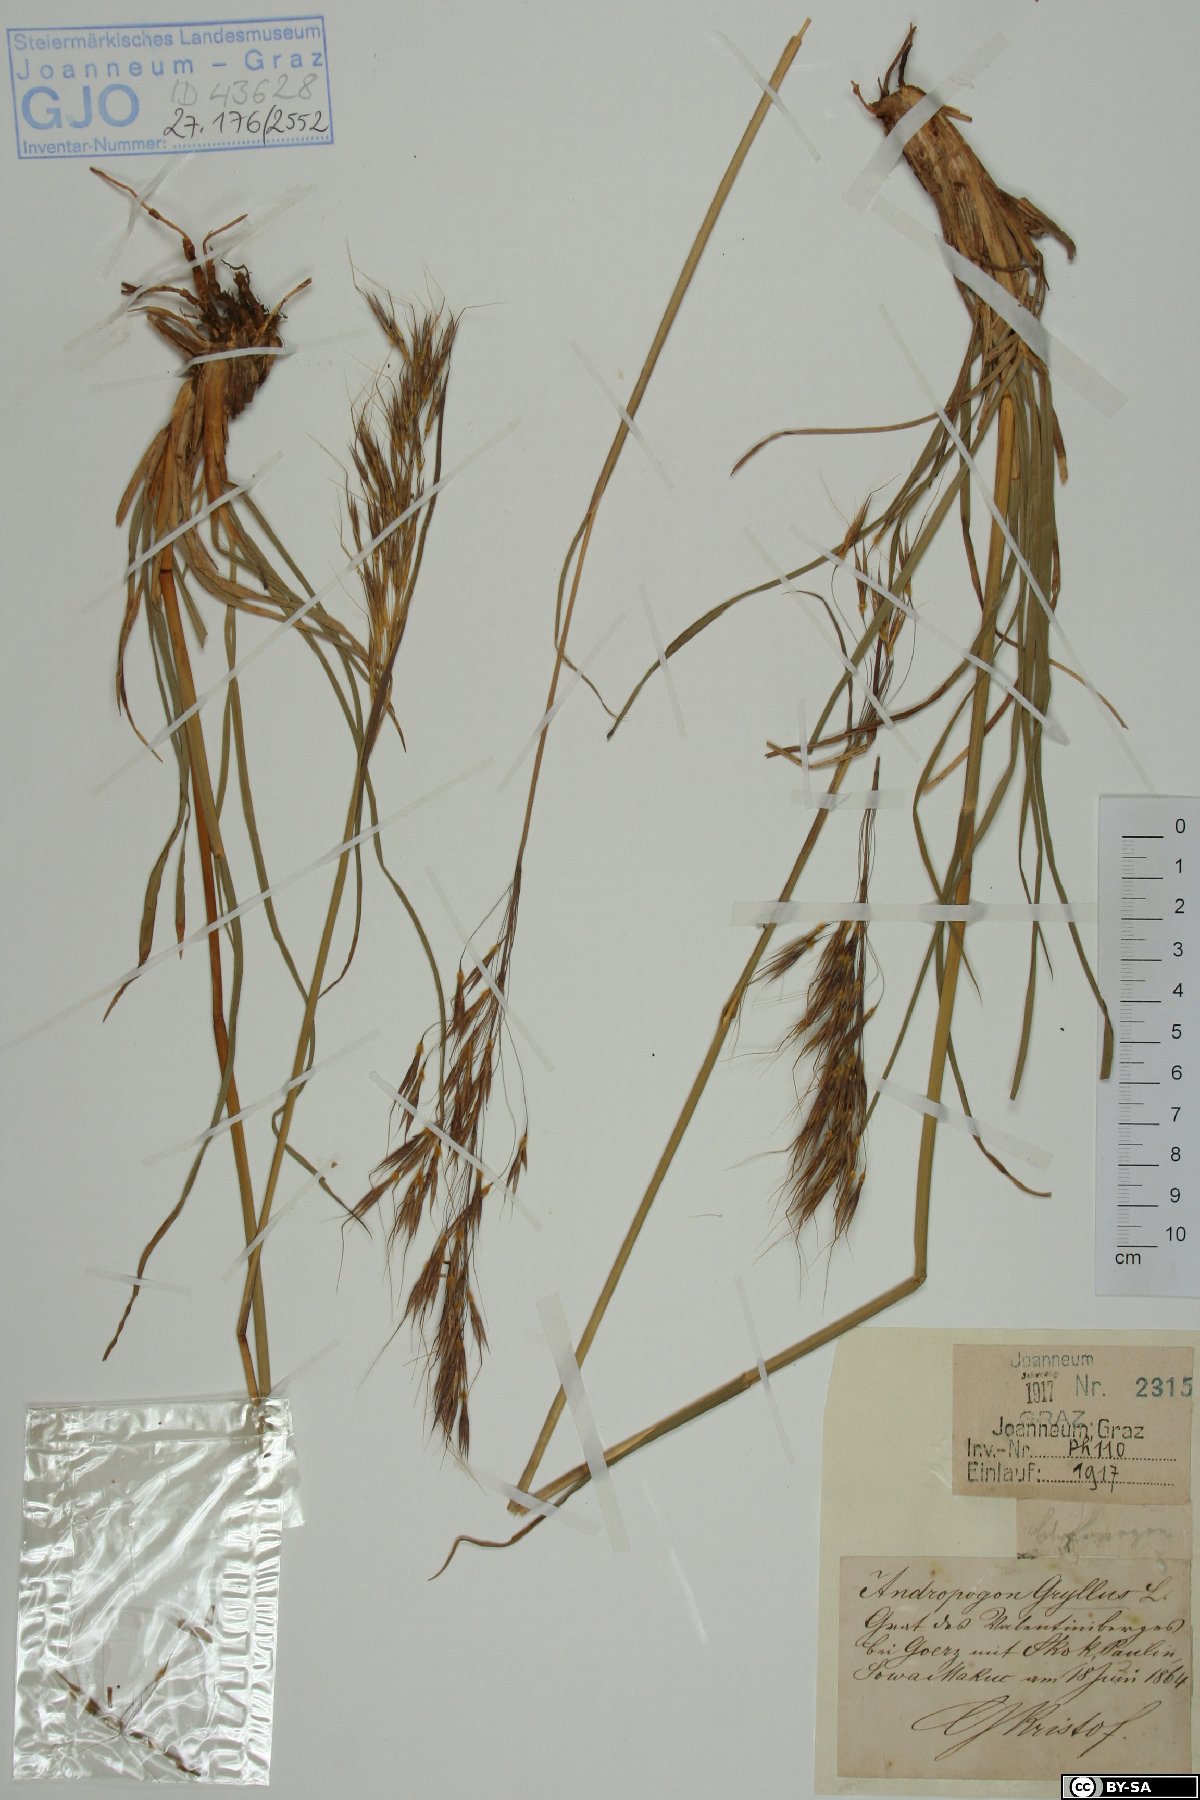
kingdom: Plantae
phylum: Tracheophyta
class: Liliopsida
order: Poales
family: Poaceae
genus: Chrysopogon
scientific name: Chrysopogon gryllus
